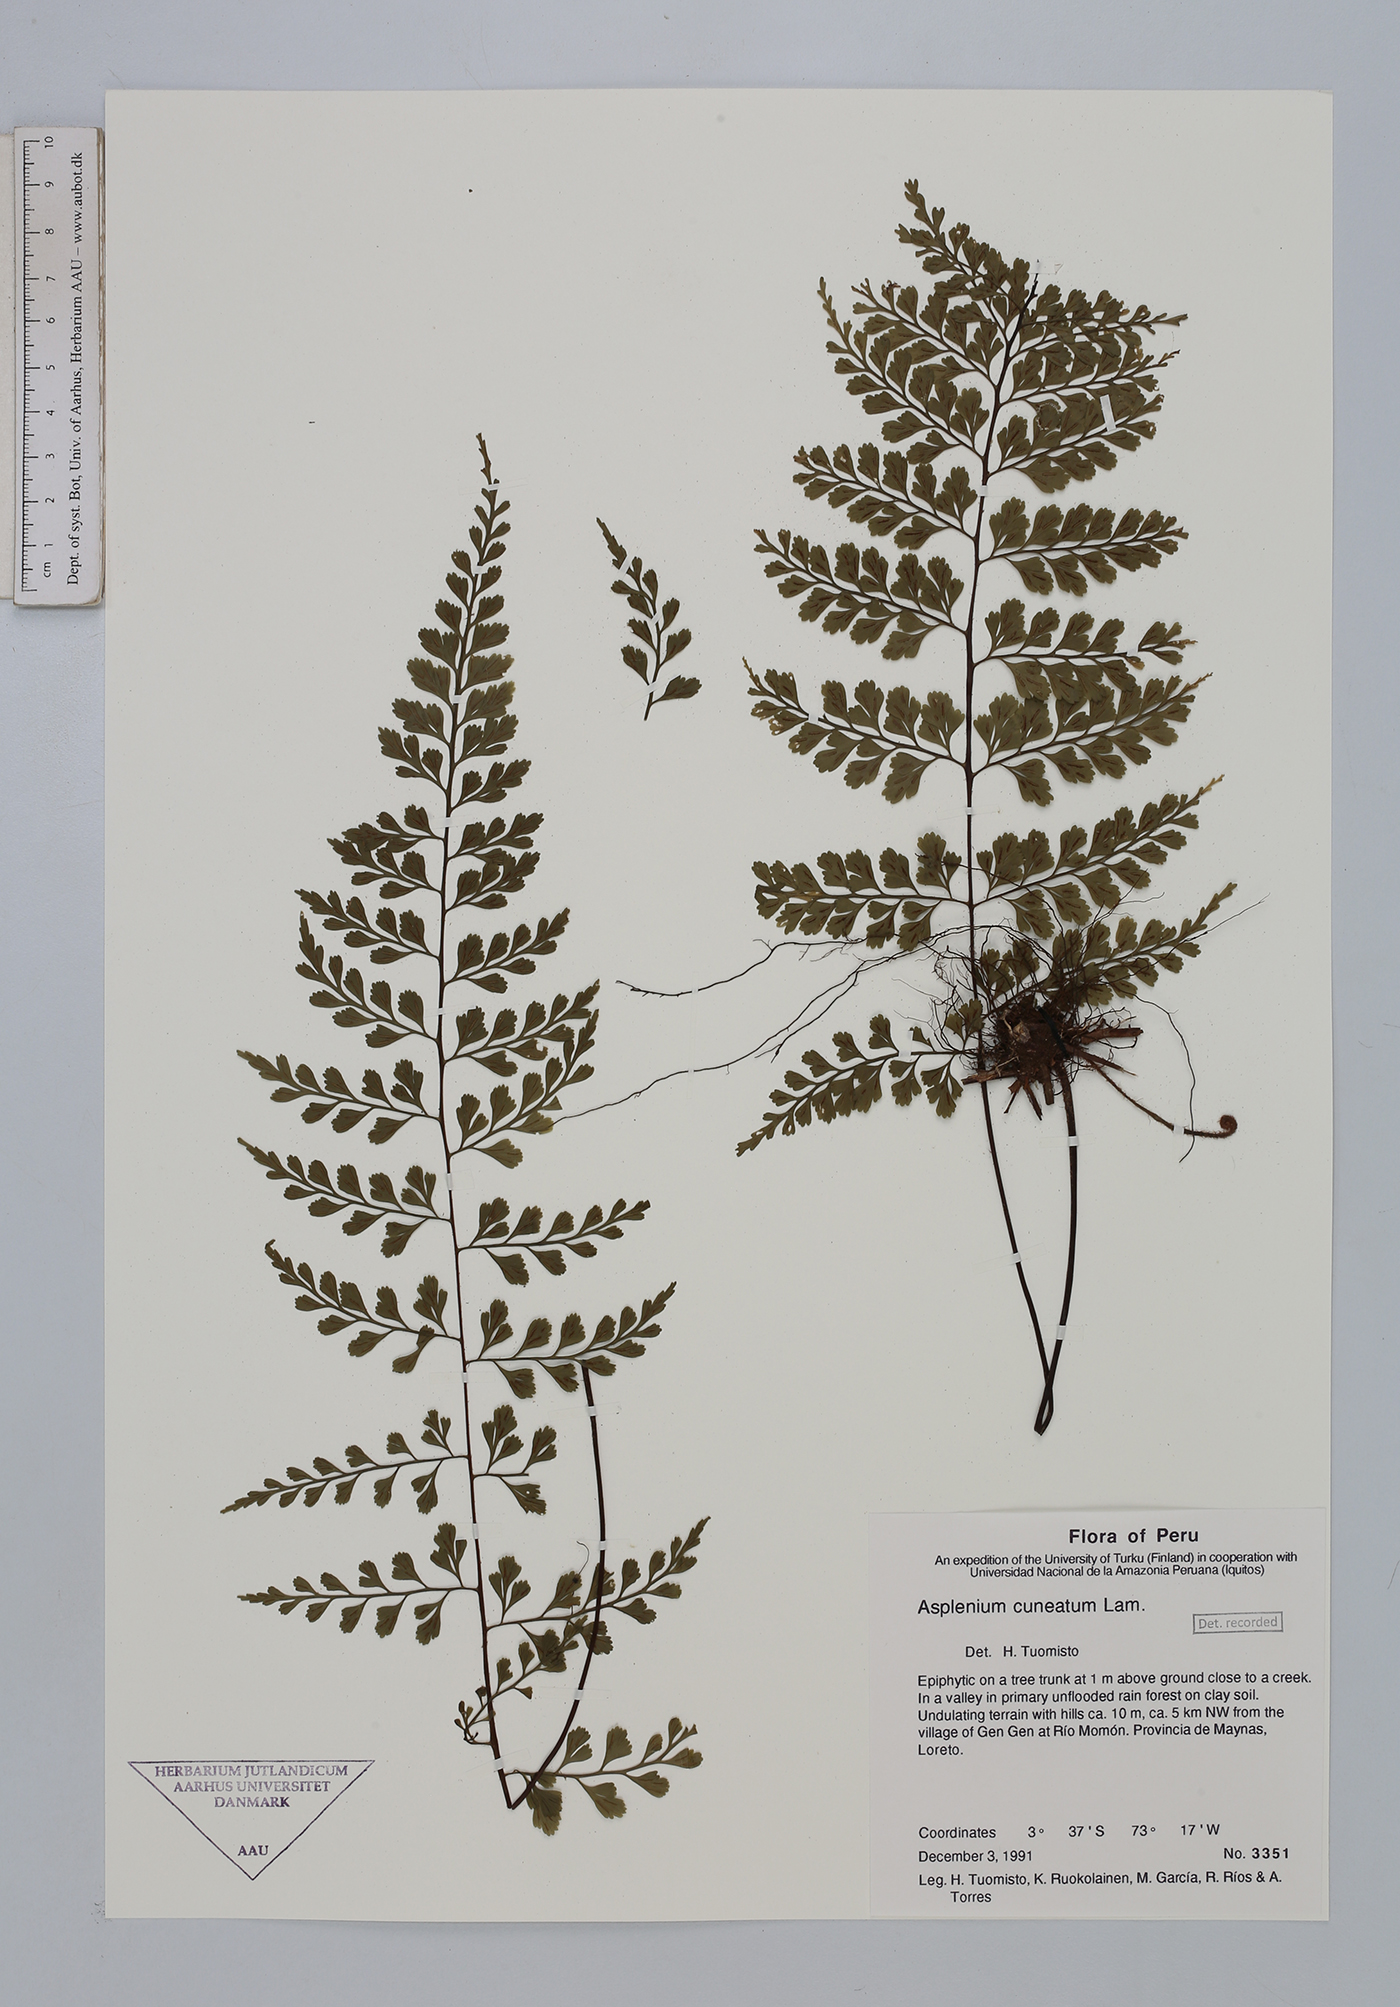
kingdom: Plantae
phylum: Tracheophyta
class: Polypodiopsida
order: Polypodiales
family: Aspleniaceae
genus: Asplenium
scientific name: Asplenium cuneatum
